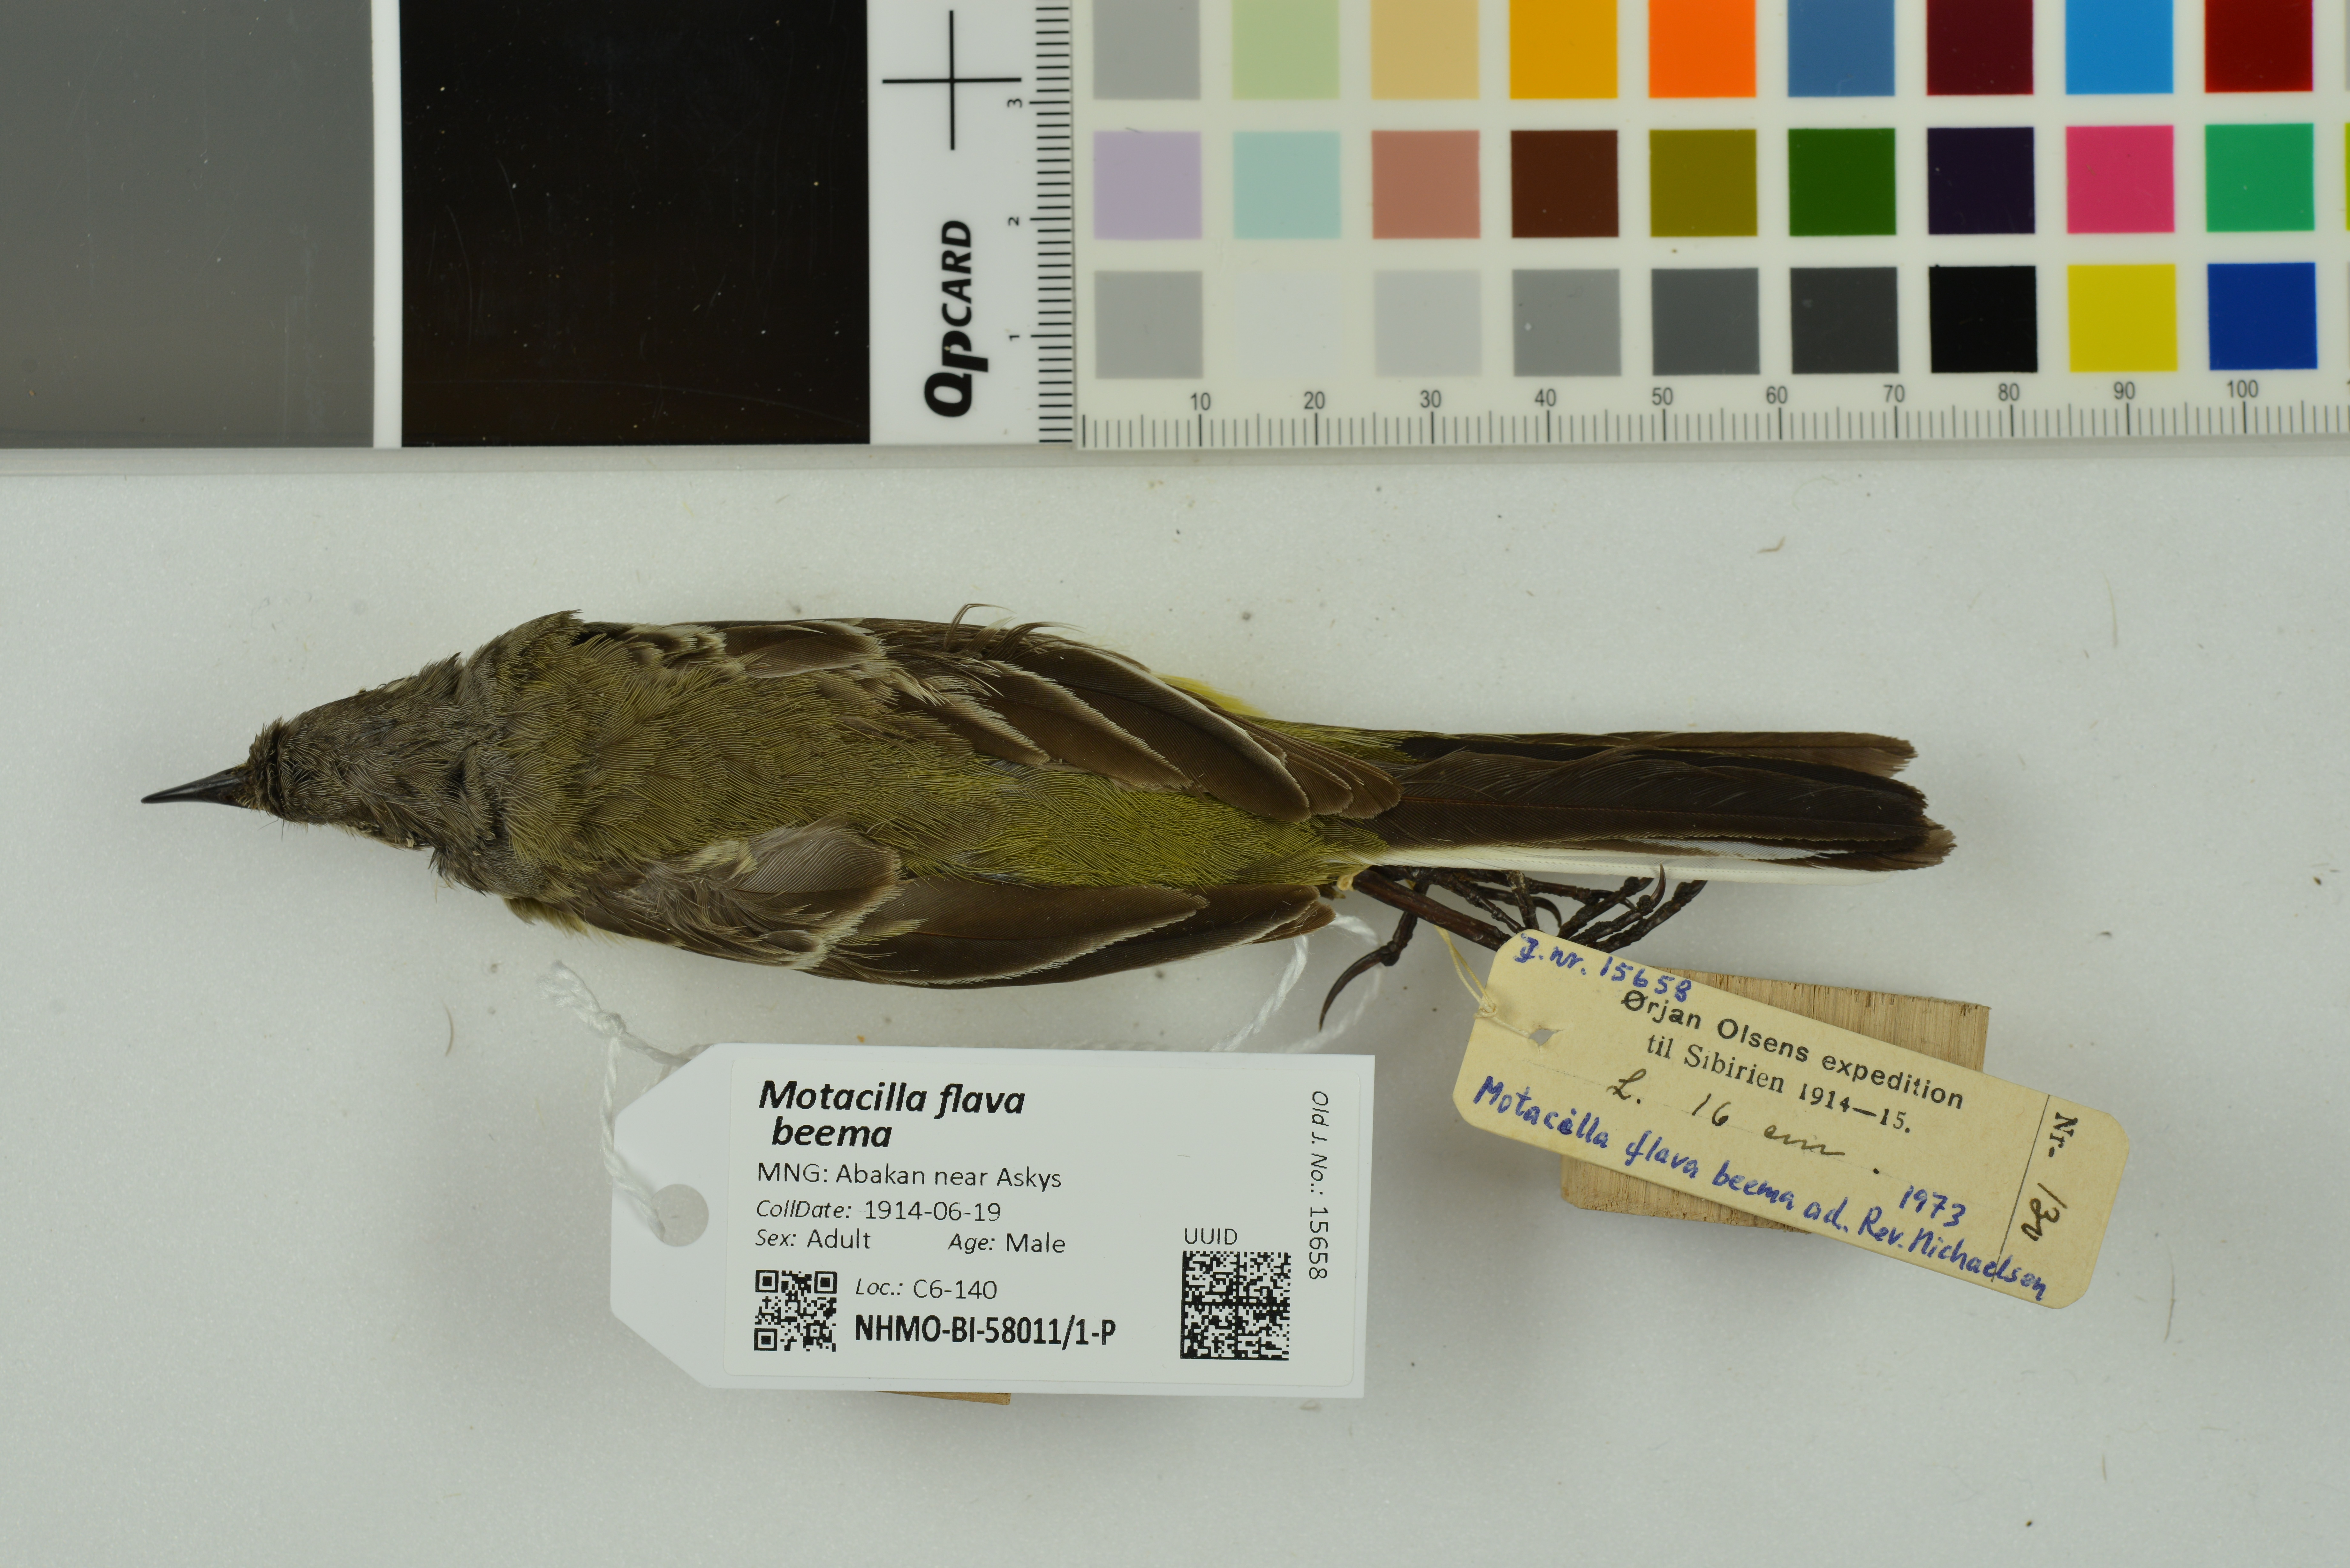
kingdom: Animalia
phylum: Chordata
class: Aves
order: Passeriformes
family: Motacillidae
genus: Motacilla
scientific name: Motacilla flava
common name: Western yellow wagtail
